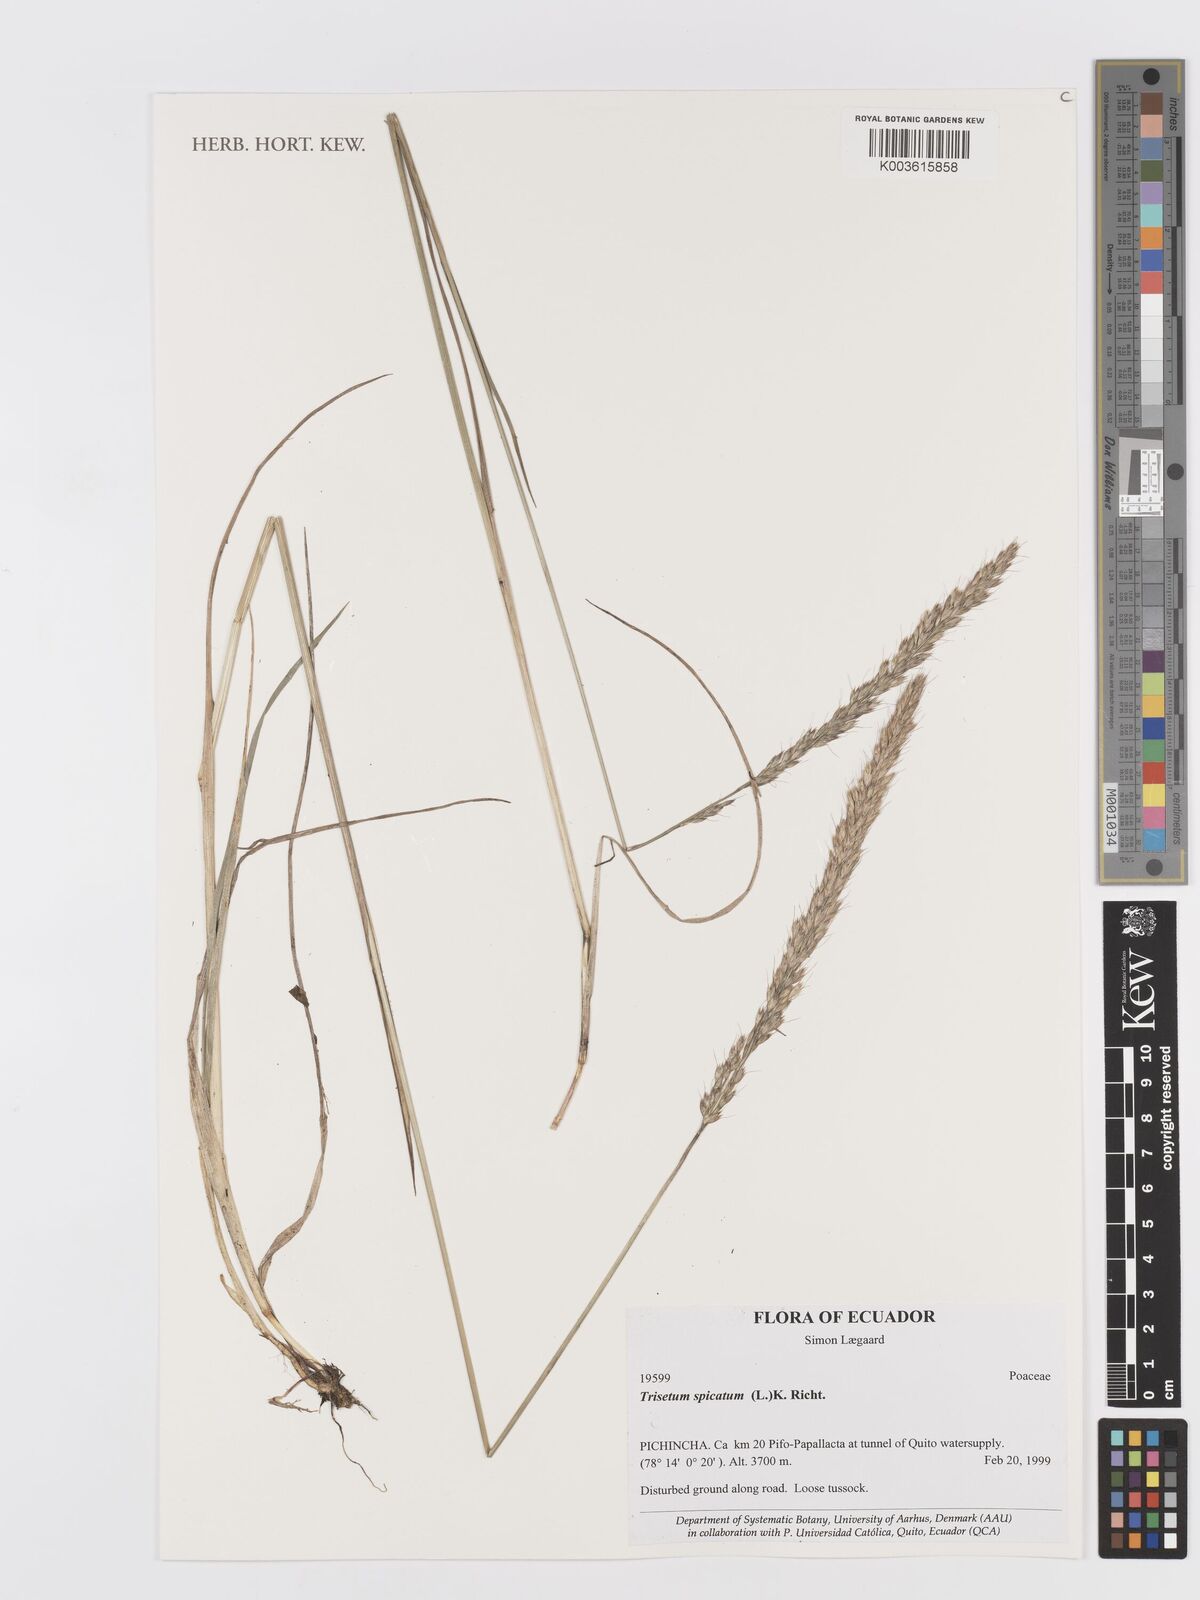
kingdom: Plantae
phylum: Tracheophyta
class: Liliopsida
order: Poales
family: Poaceae
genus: Koeleria
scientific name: Koeleria spicata
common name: Mountain trisetum
